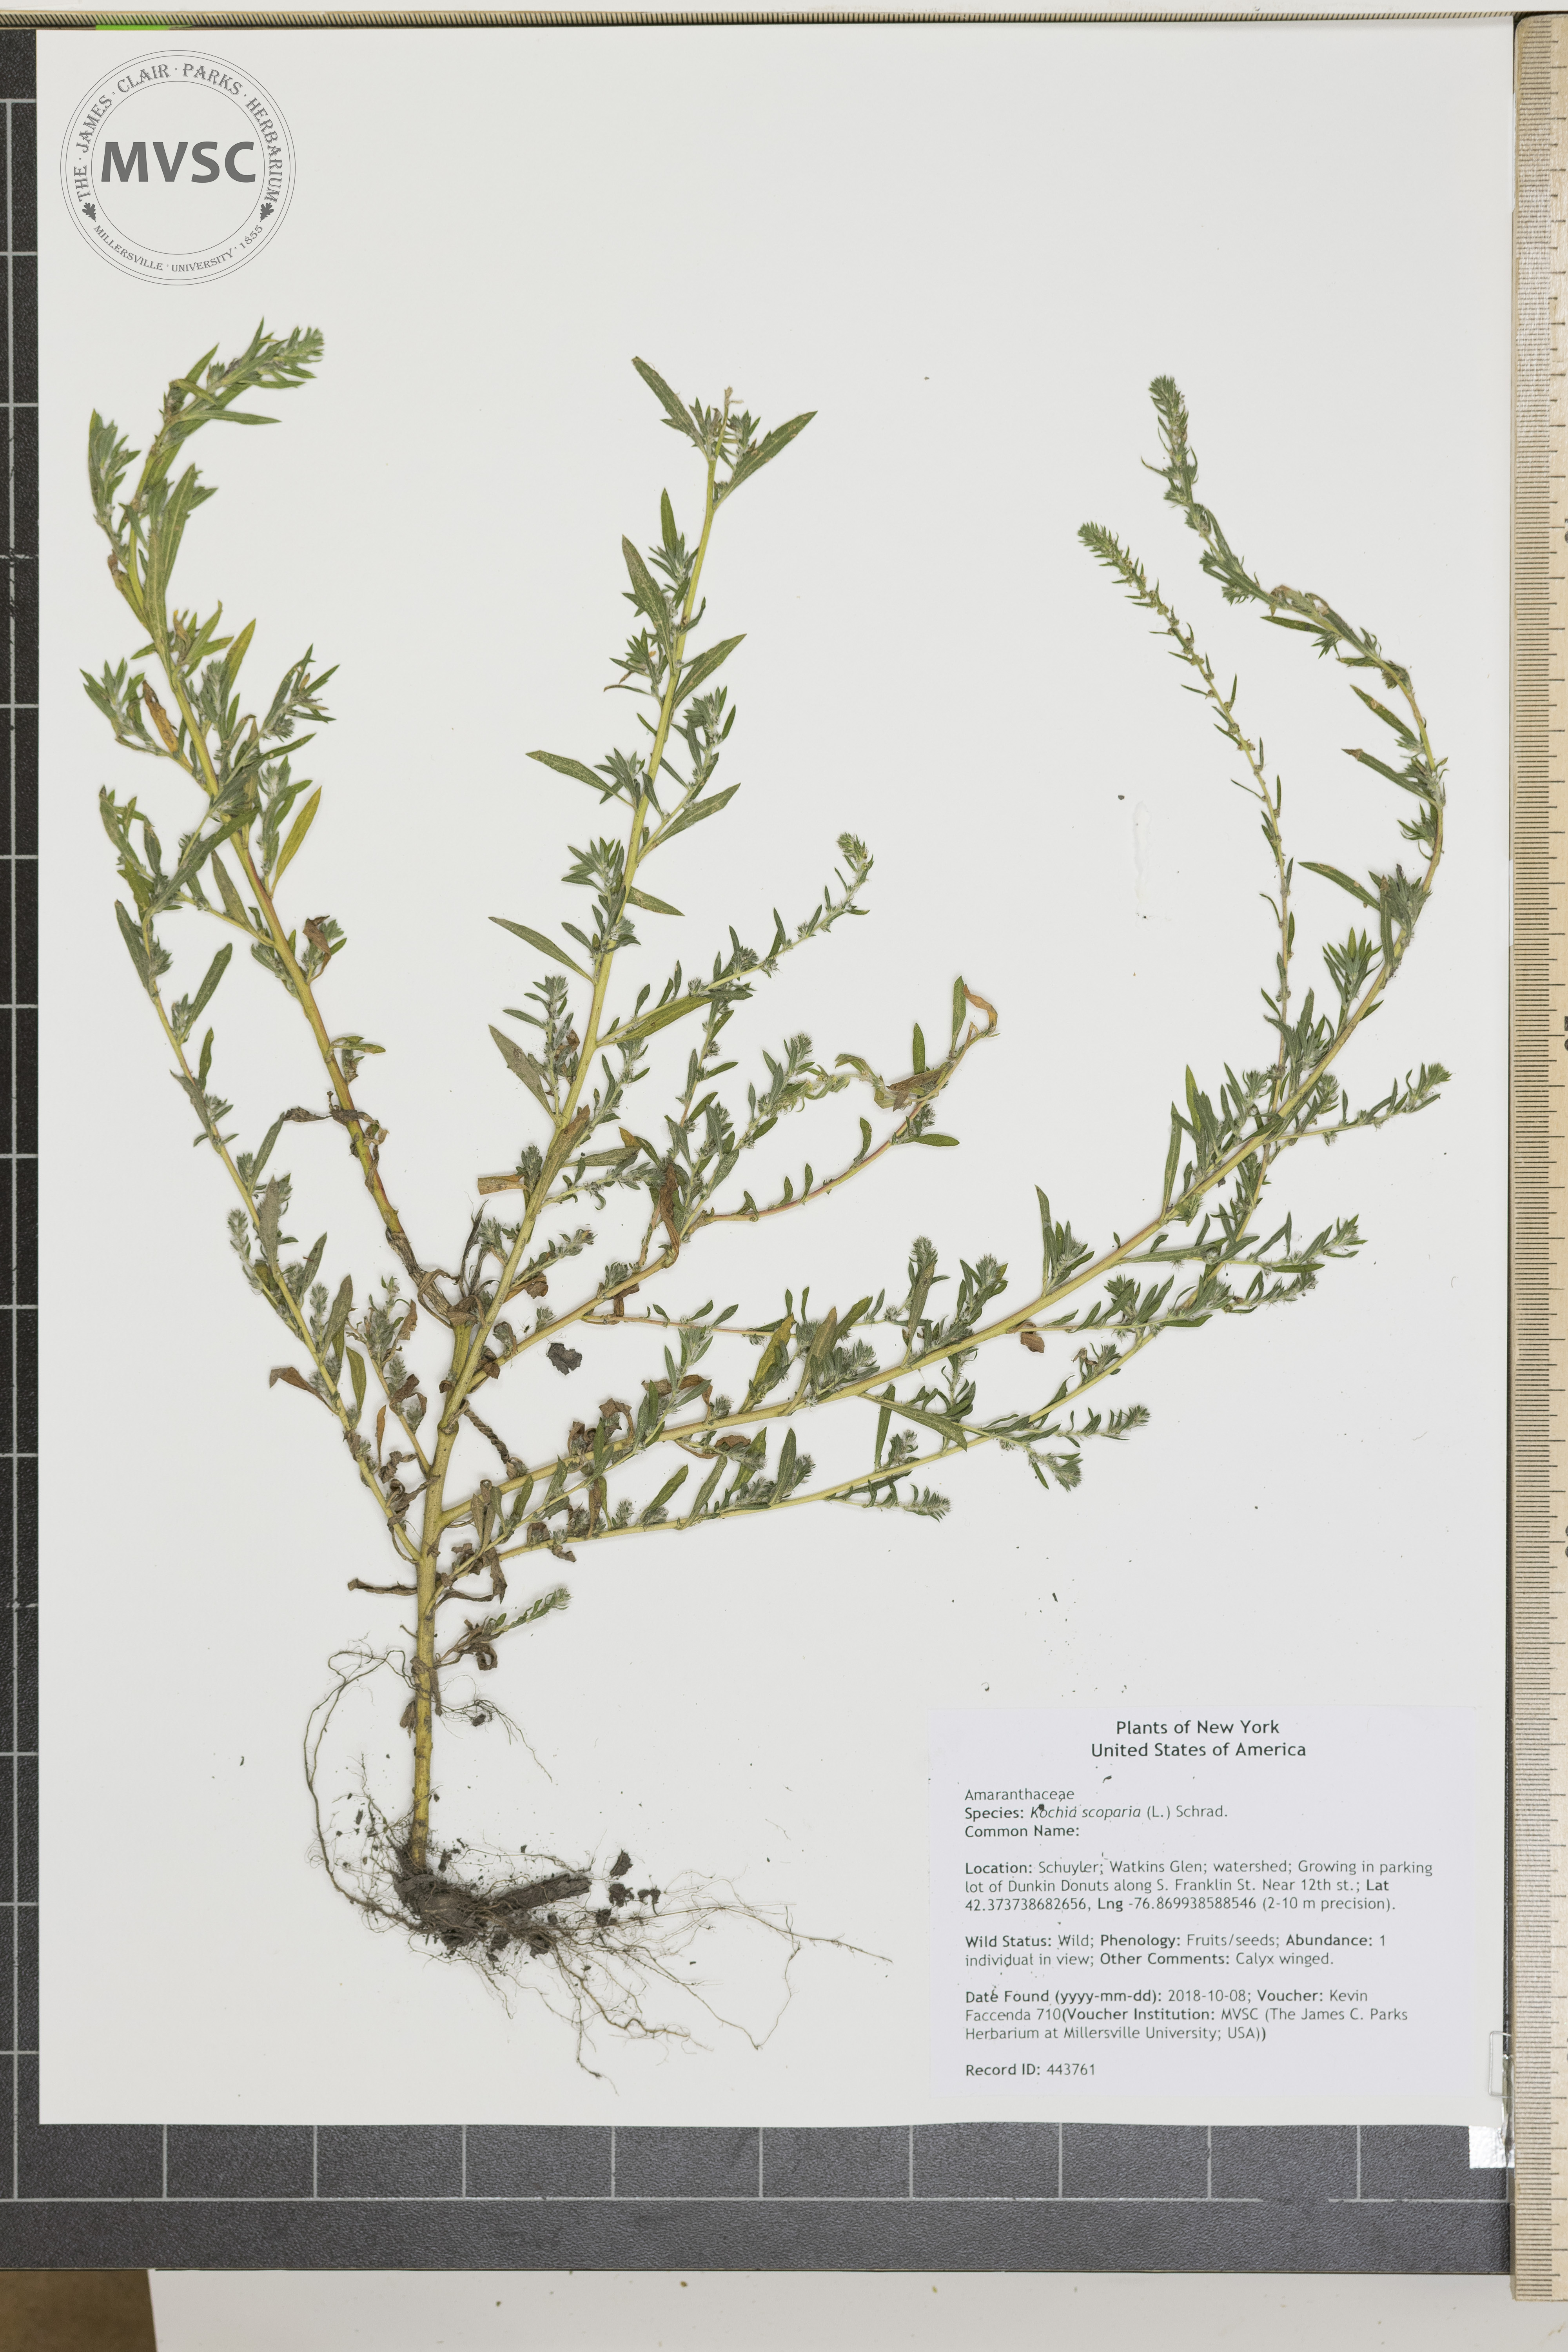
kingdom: Plantae
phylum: Tracheophyta
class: Magnoliopsida
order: Caryophyllales
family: Amaranthaceae
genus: Bassia
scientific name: Bassia scoparia
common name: Belvedere
